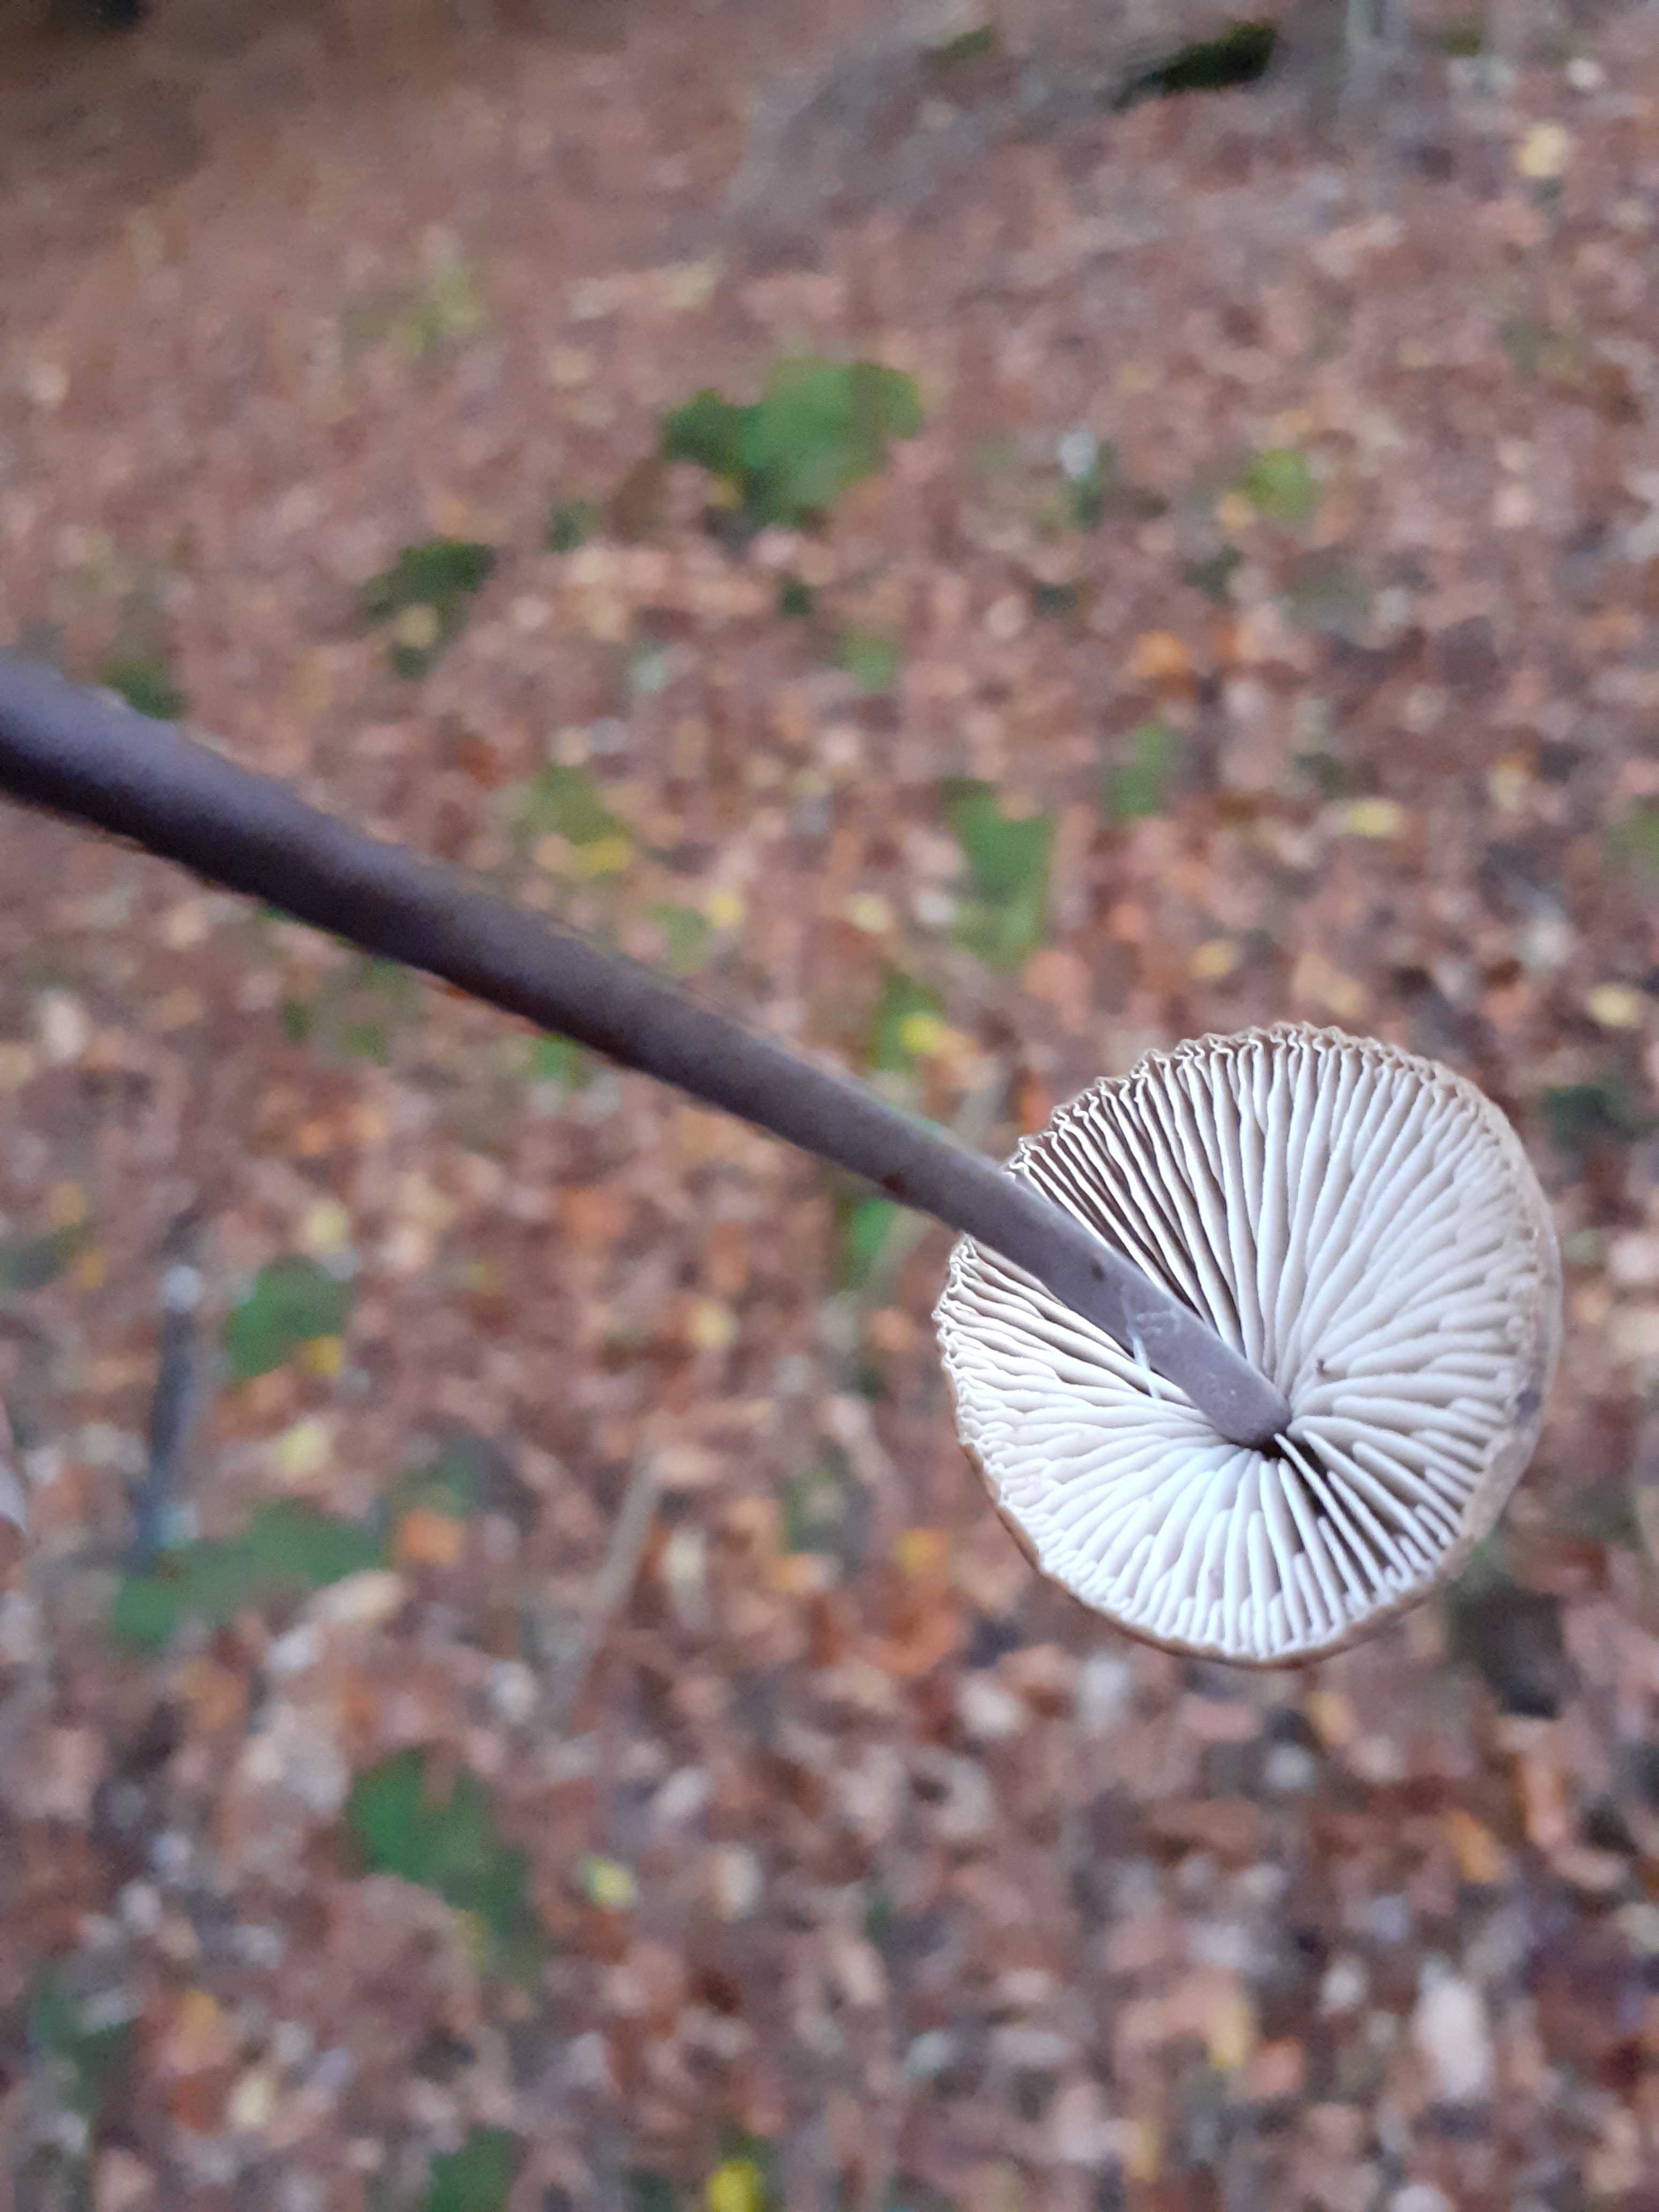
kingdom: Fungi
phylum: Basidiomycota
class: Agaricomycetes
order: Agaricales
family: Omphalotaceae
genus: Mycetinis
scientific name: Mycetinis alliaceus
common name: stor løghat
